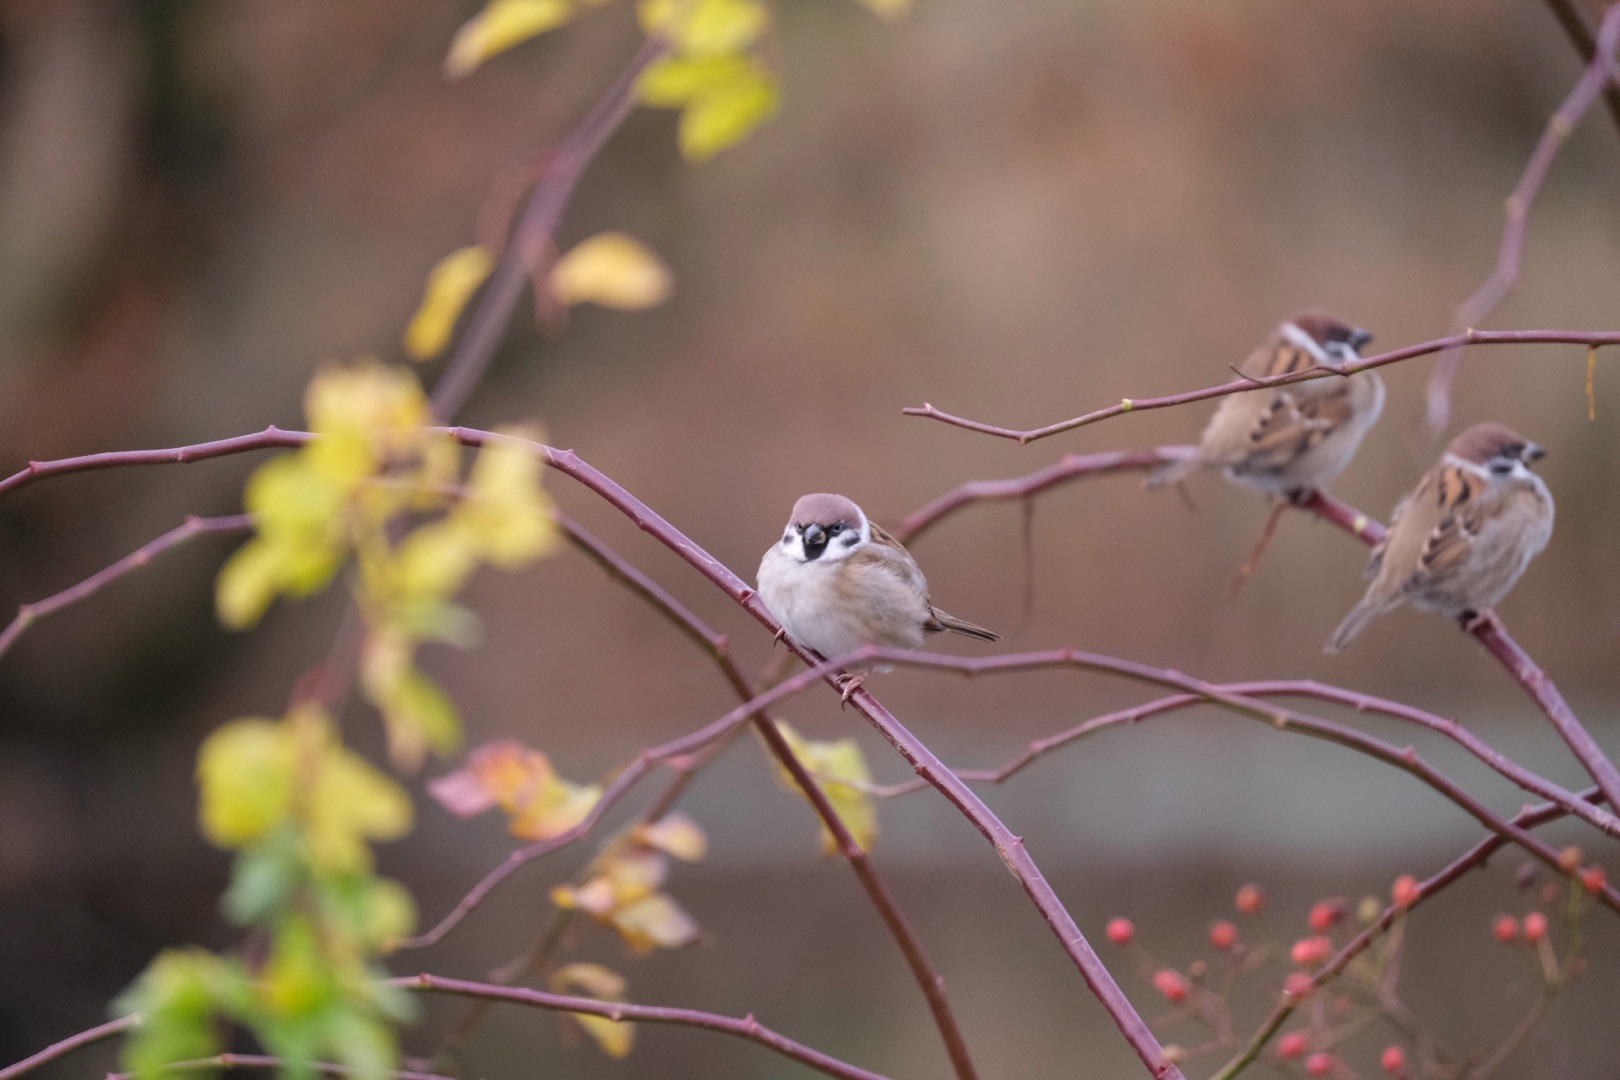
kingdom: Animalia
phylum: Chordata
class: Aves
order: Passeriformes
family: Passeridae
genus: Passer
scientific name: Passer montanus
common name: Skovspurv
